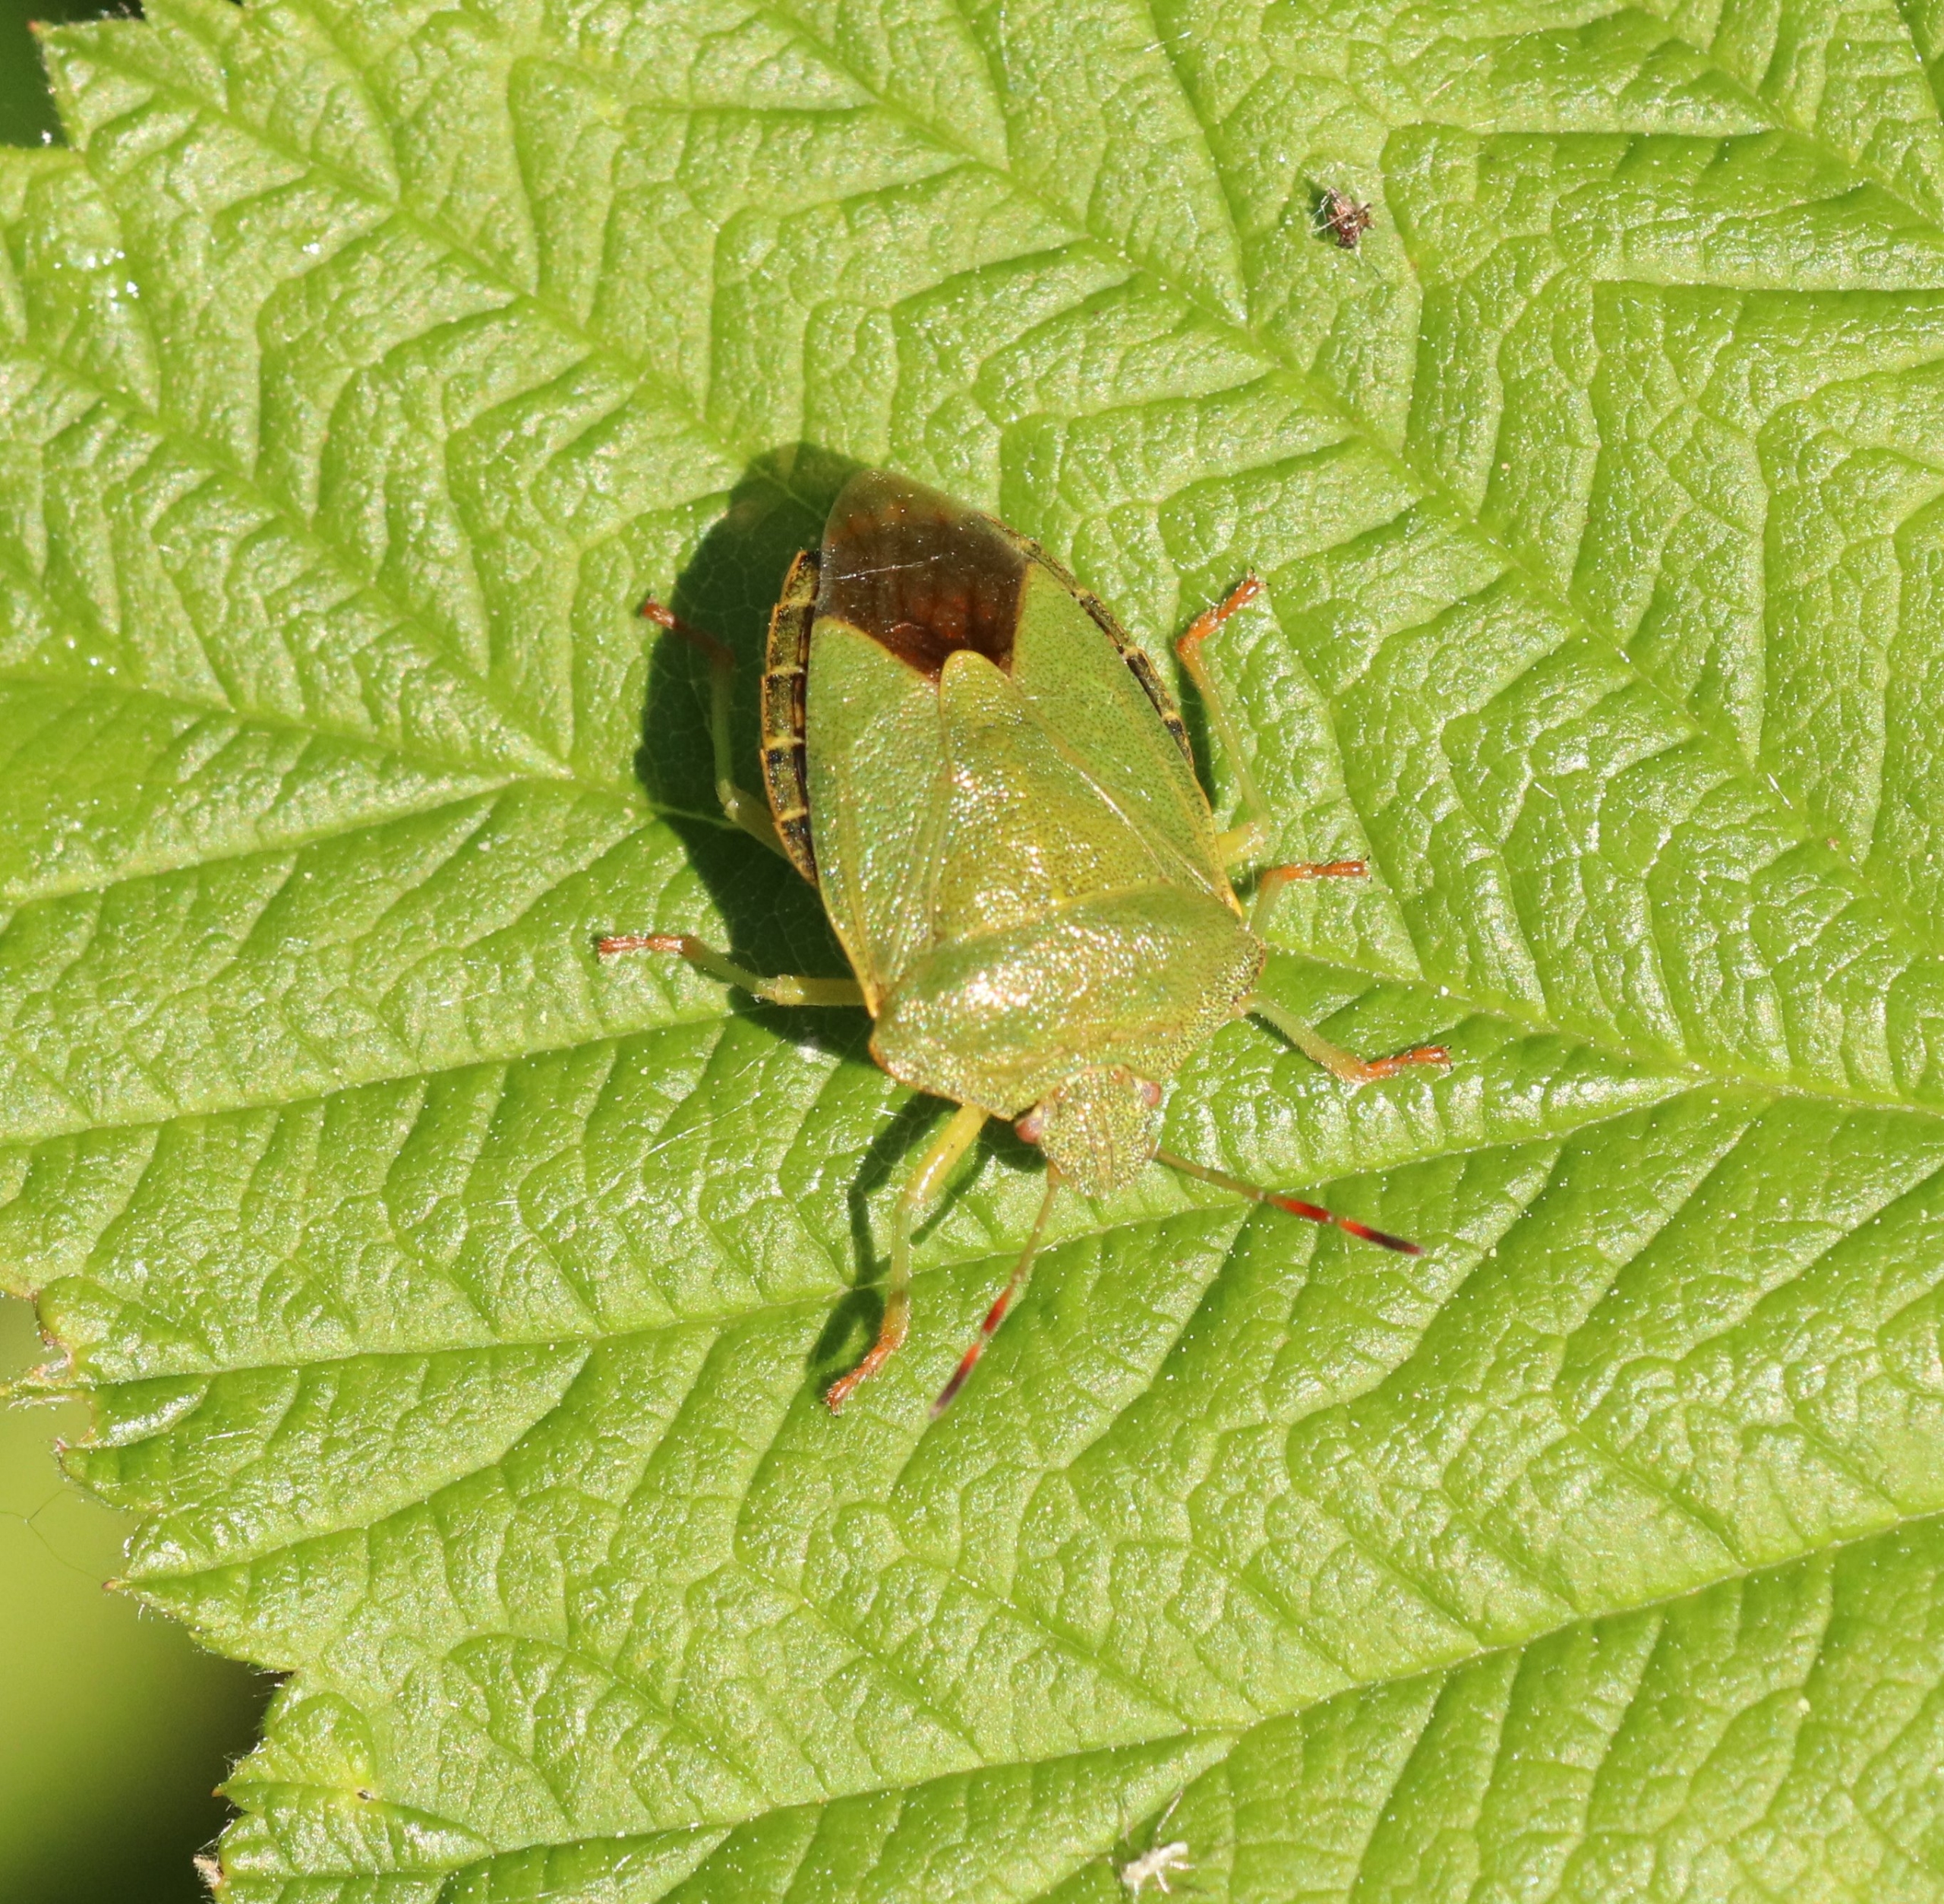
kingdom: Animalia
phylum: Arthropoda
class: Insecta
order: Hemiptera
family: Pentatomidae
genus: Palomena
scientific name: Palomena prasina
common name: Grøn bredtæge
